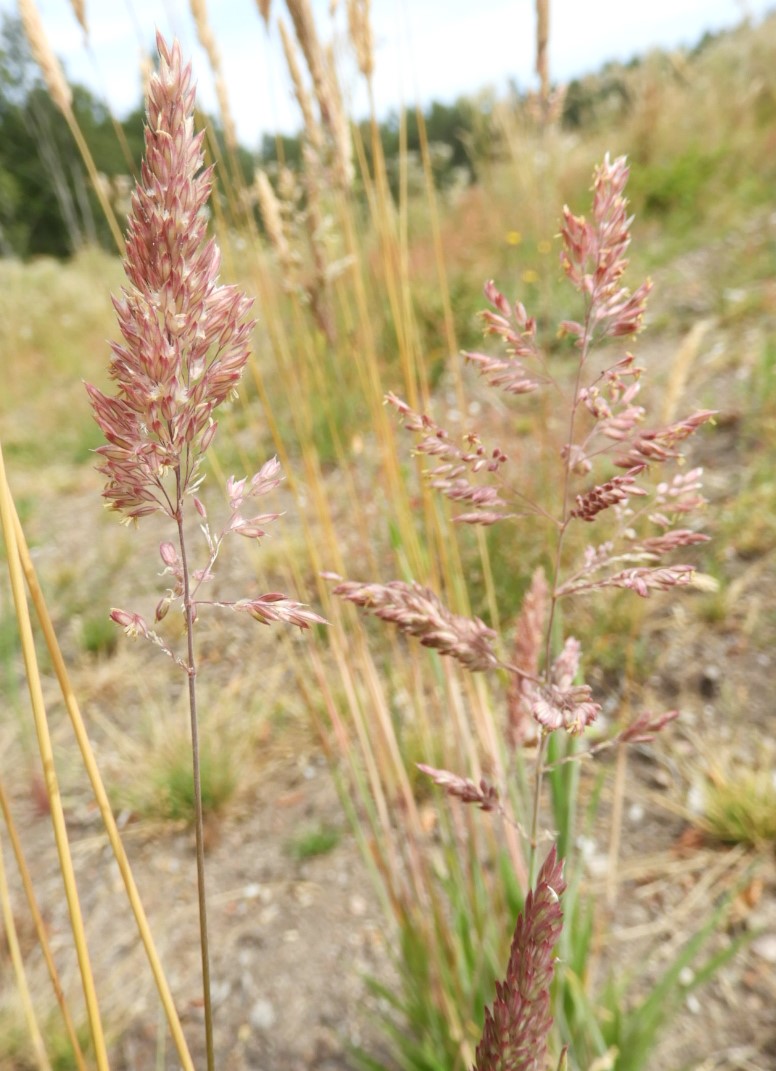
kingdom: Fungi
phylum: Basidiomycota
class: Pucciniomycetes
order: Pucciniales
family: Pucciniaceae
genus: Puccinia
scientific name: Puccinia
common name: tvecellerust
